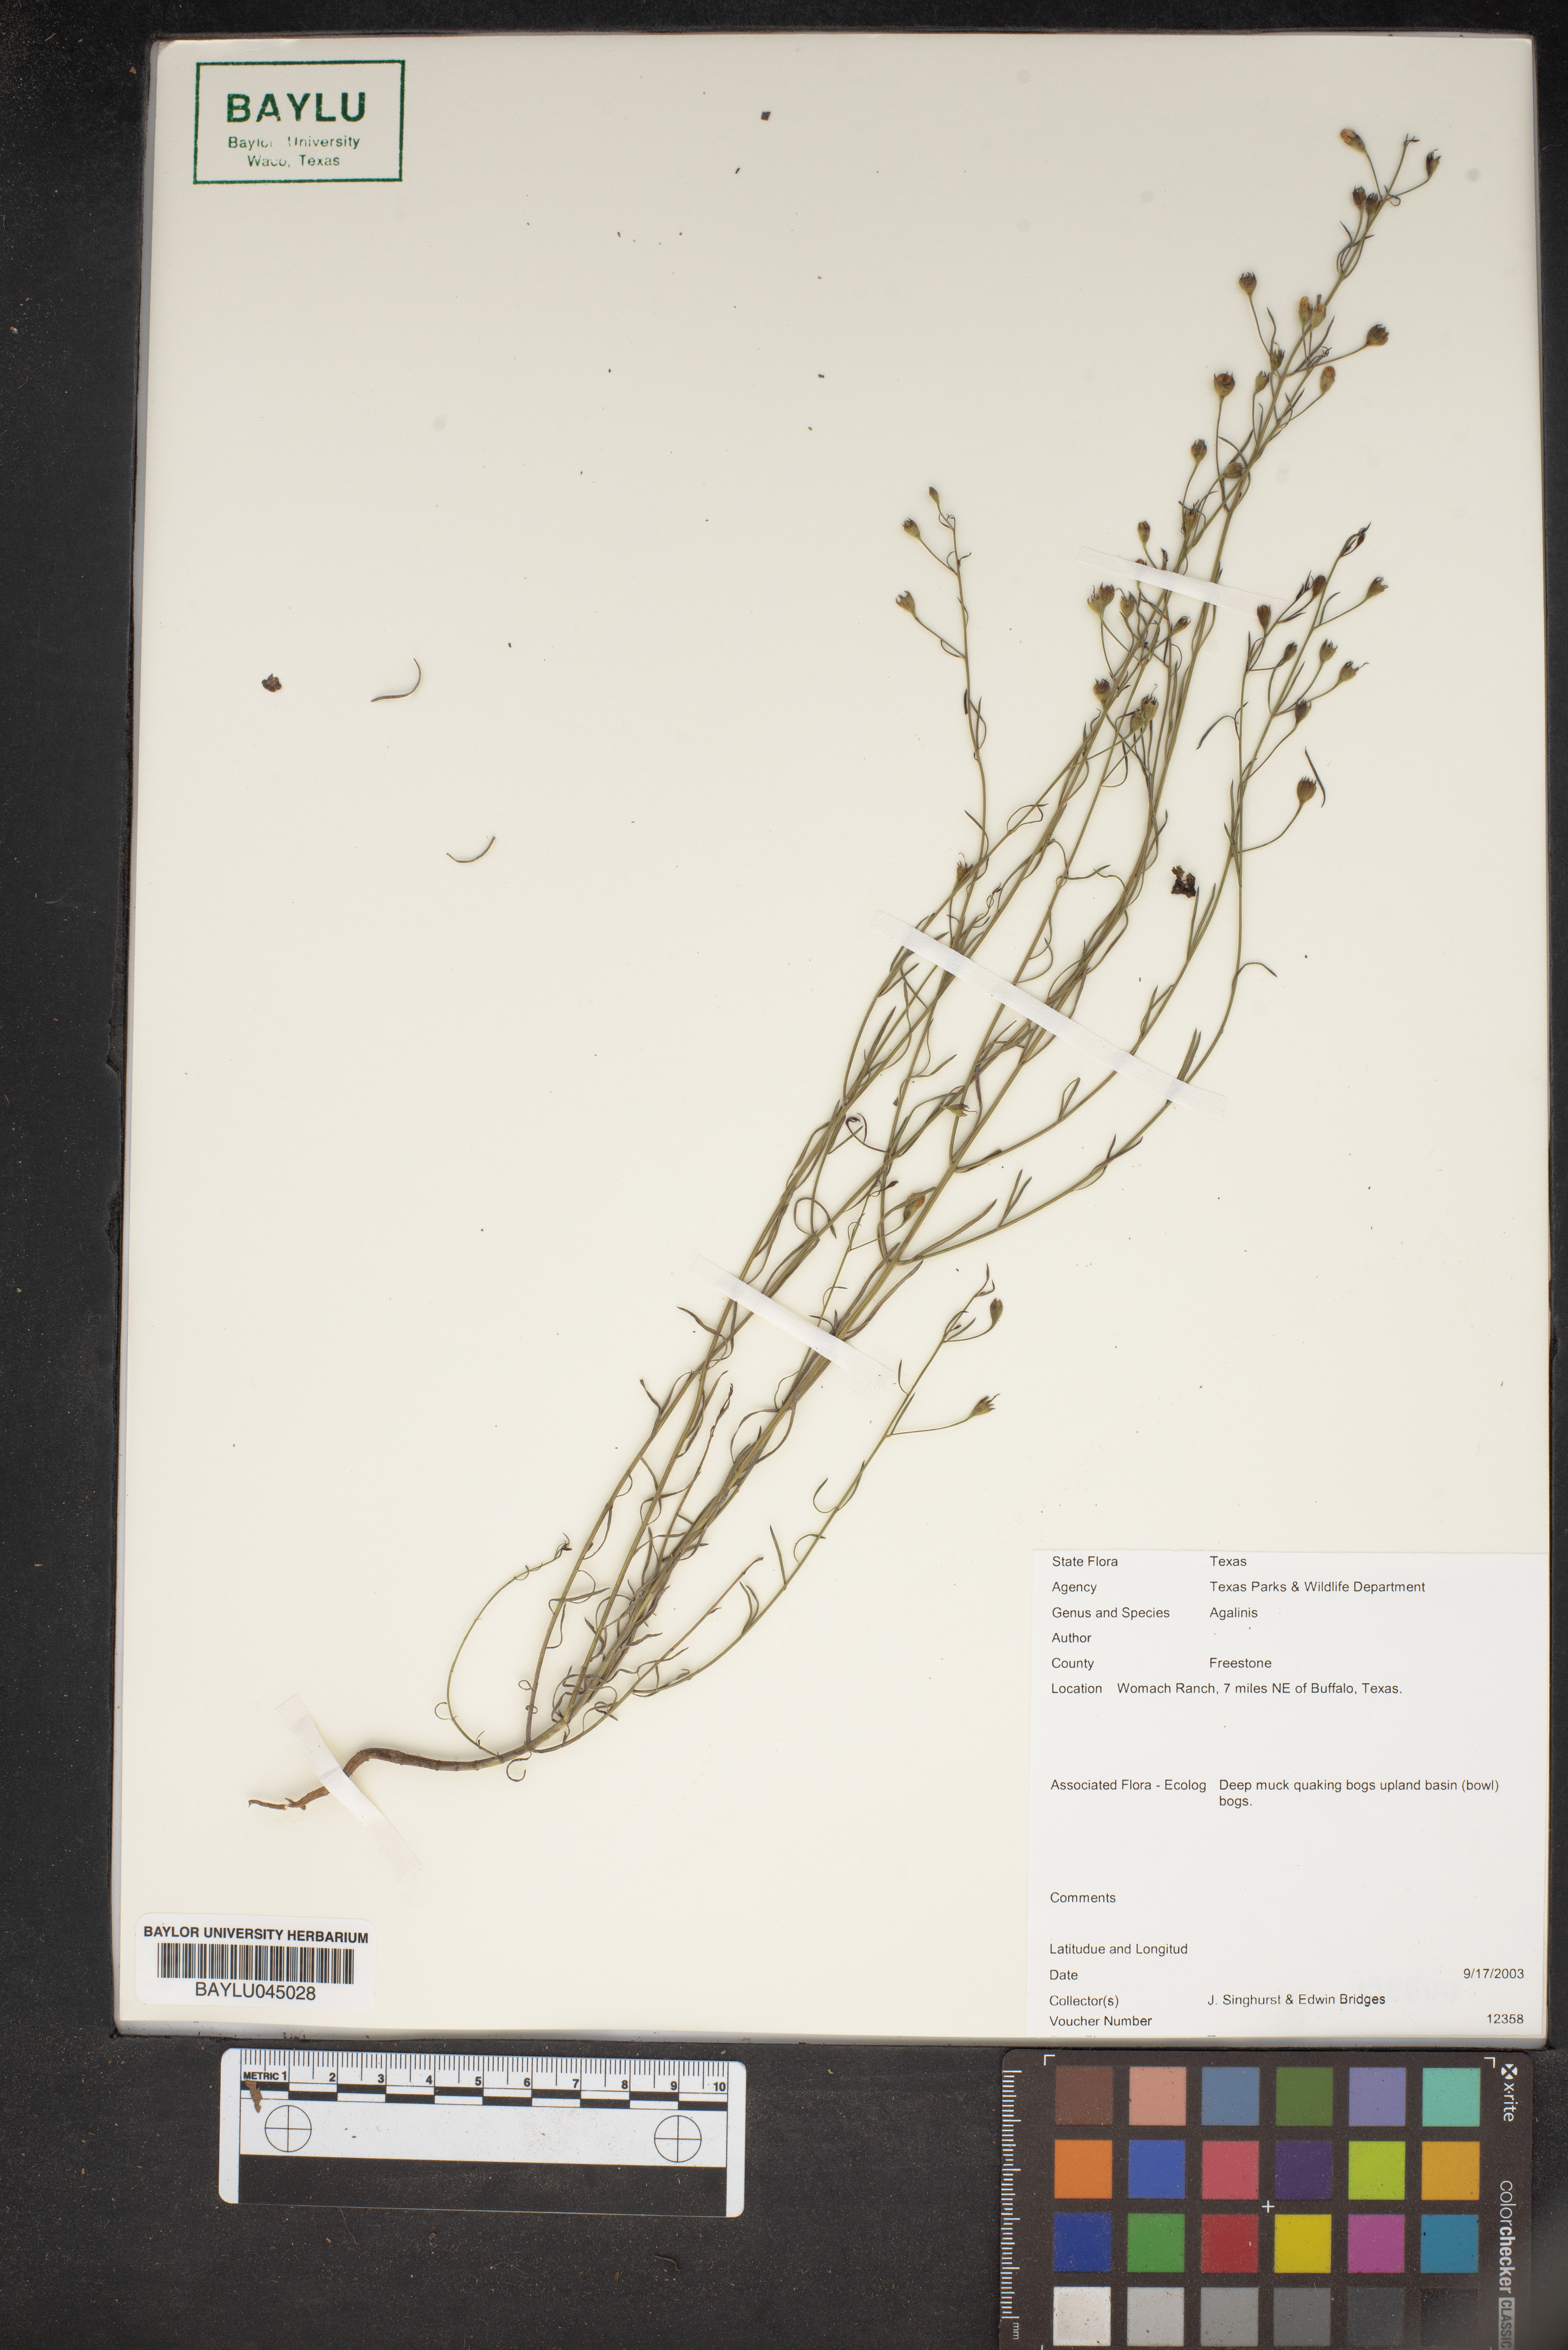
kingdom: Plantae
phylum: Tracheophyta
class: Magnoliopsida
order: Lamiales
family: Orobanchaceae
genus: Agalinis
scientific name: Agalinis
